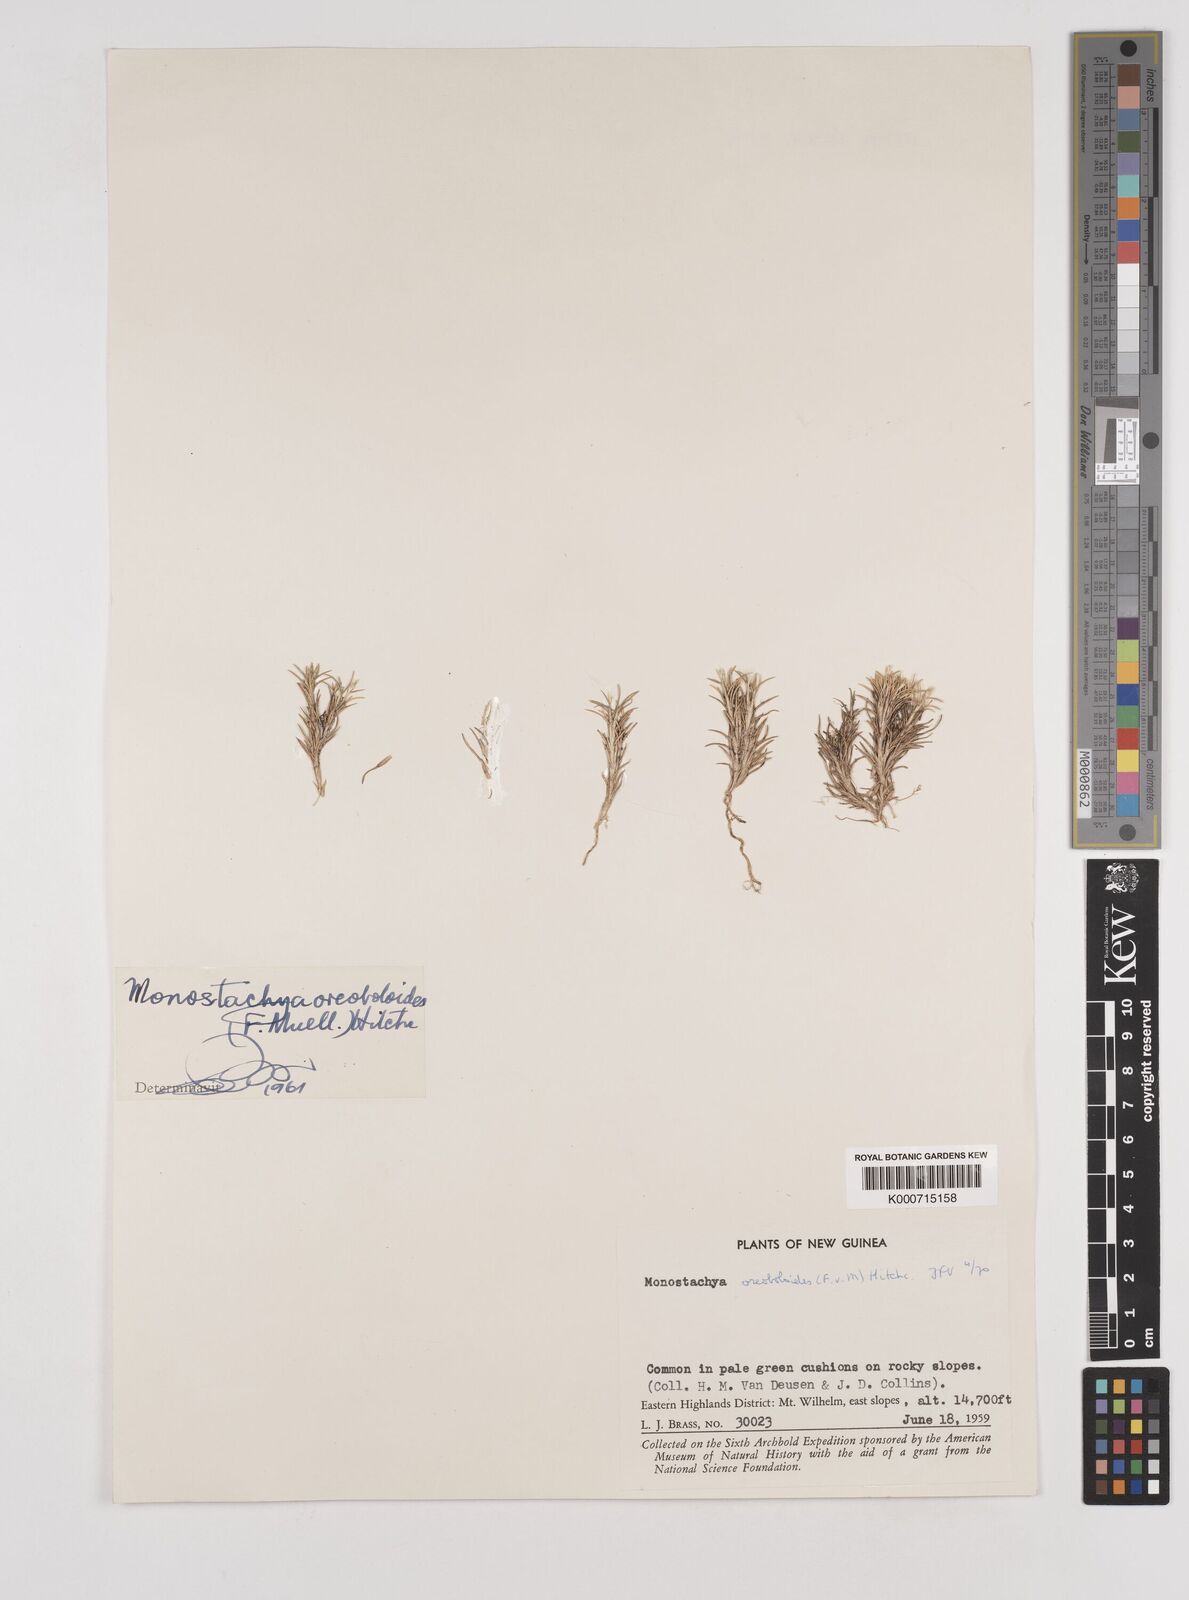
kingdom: Plantae
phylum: Tracheophyta
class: Liliopsida
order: Poales
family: Poaceae
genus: Rytidosperma
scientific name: Rytidosperma oreoboloides
